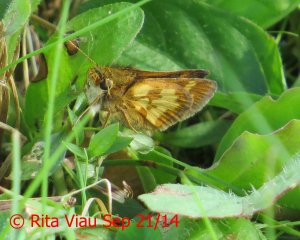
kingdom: Animalia
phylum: Arthropoda
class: Insecta
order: Lepidoptera
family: Hesperiidae
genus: Polites
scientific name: Polites coras
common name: Peck's Skipper
